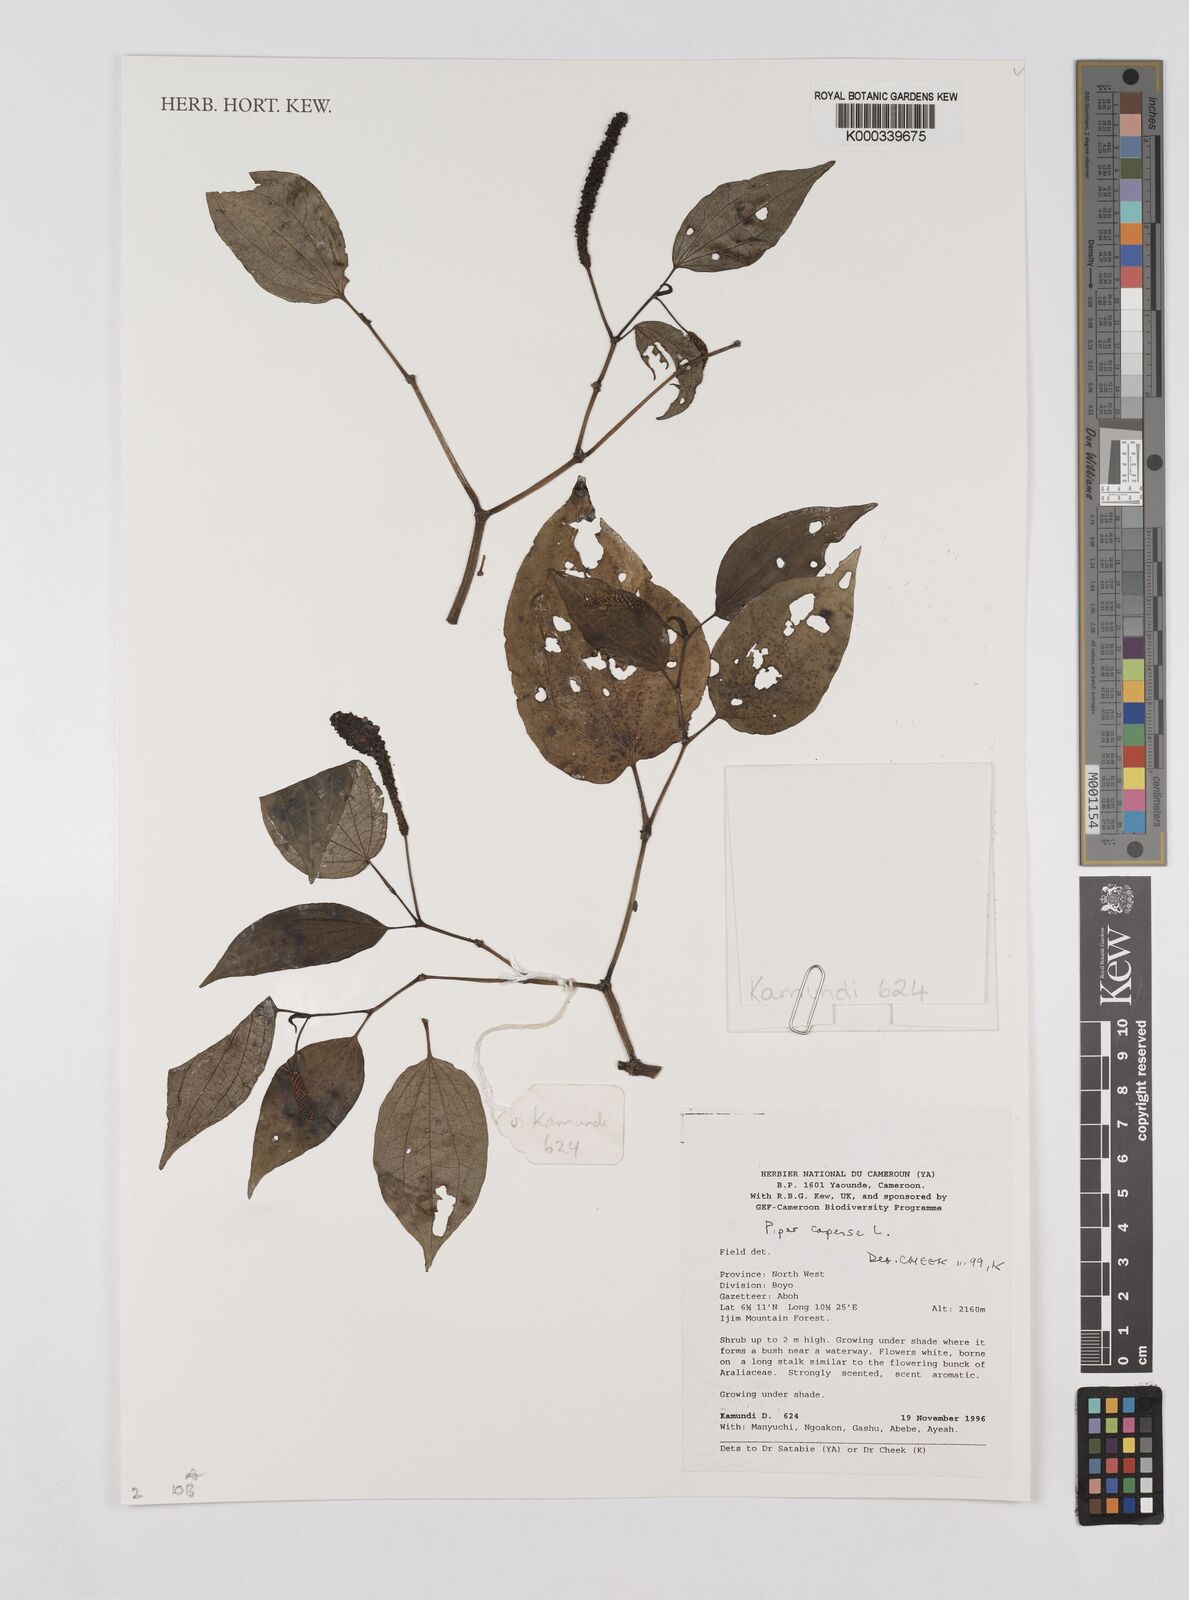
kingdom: Plantae
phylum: Tracheophyta
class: Magnoliopsida
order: Piperales
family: Piperaceae
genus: Piper
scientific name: Piper capense
